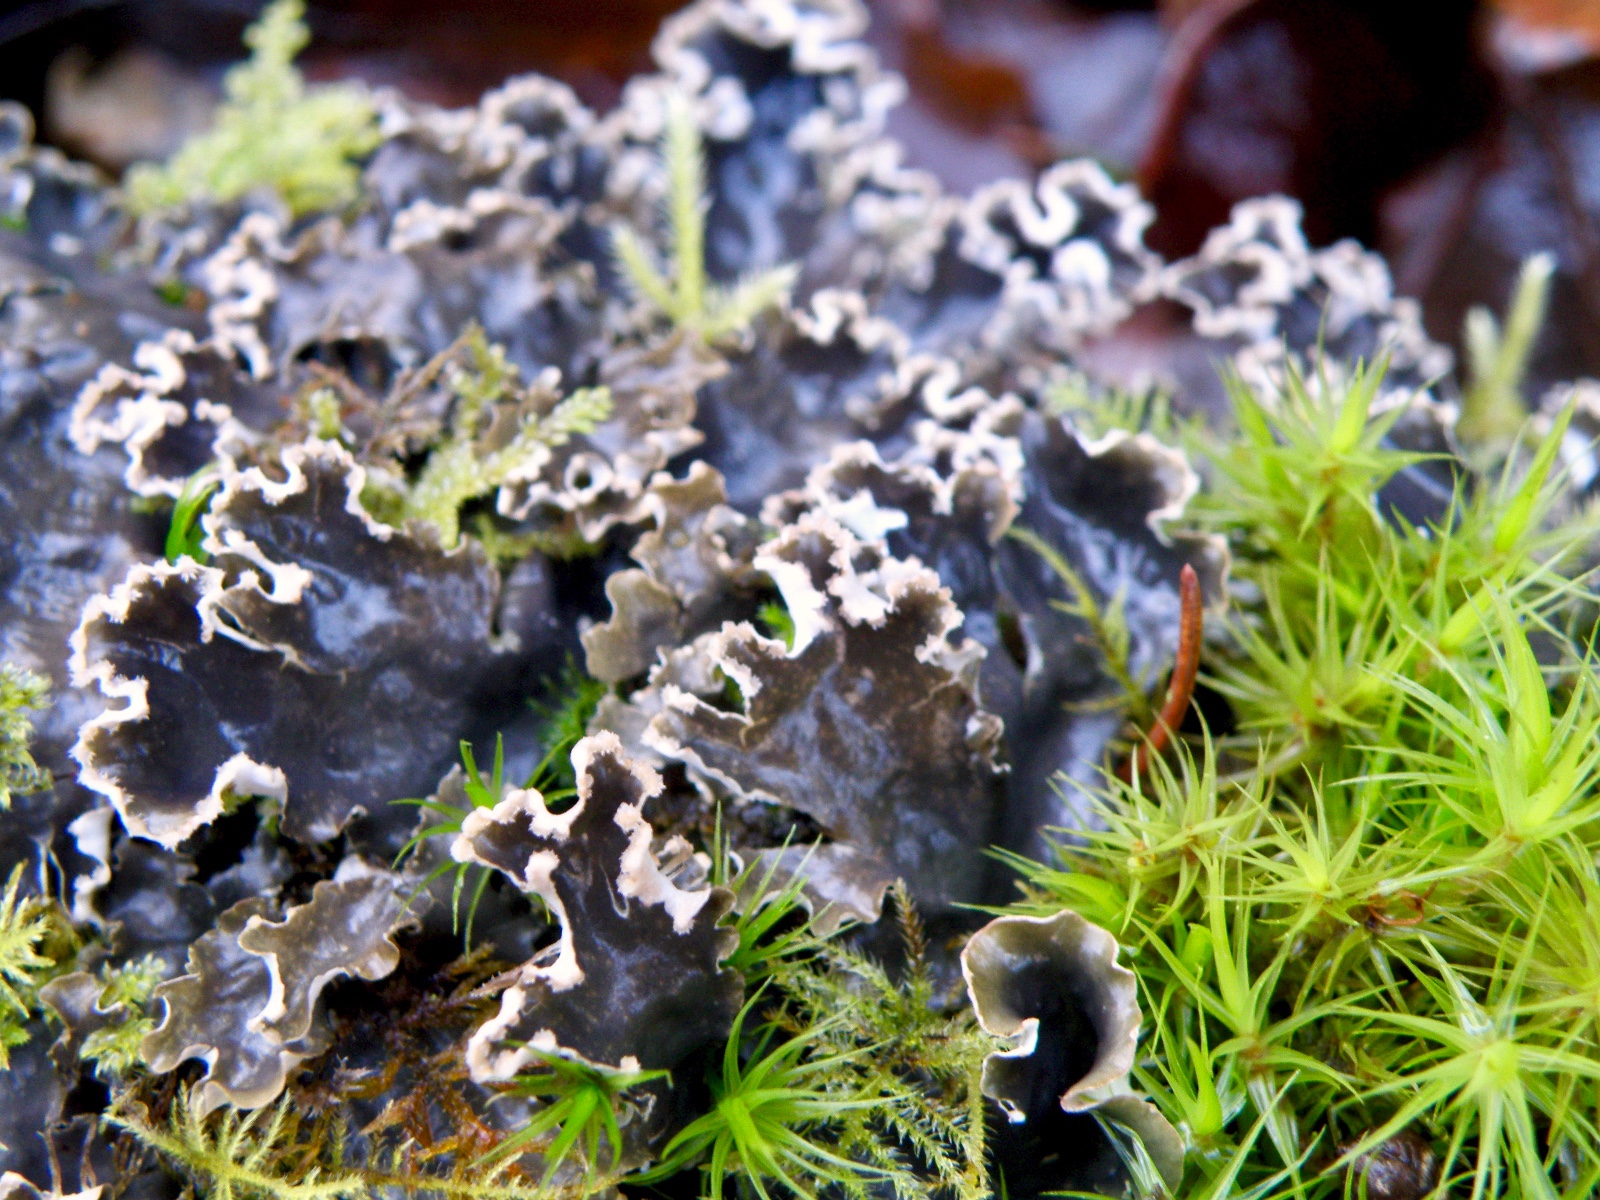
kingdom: Fungi
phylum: Ascomycota
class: Lecanoromycetes
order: Peltigerales
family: Peltigeraceae
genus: Peltigera
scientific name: Peltigera hymenina
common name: hinde-skjoldlav
